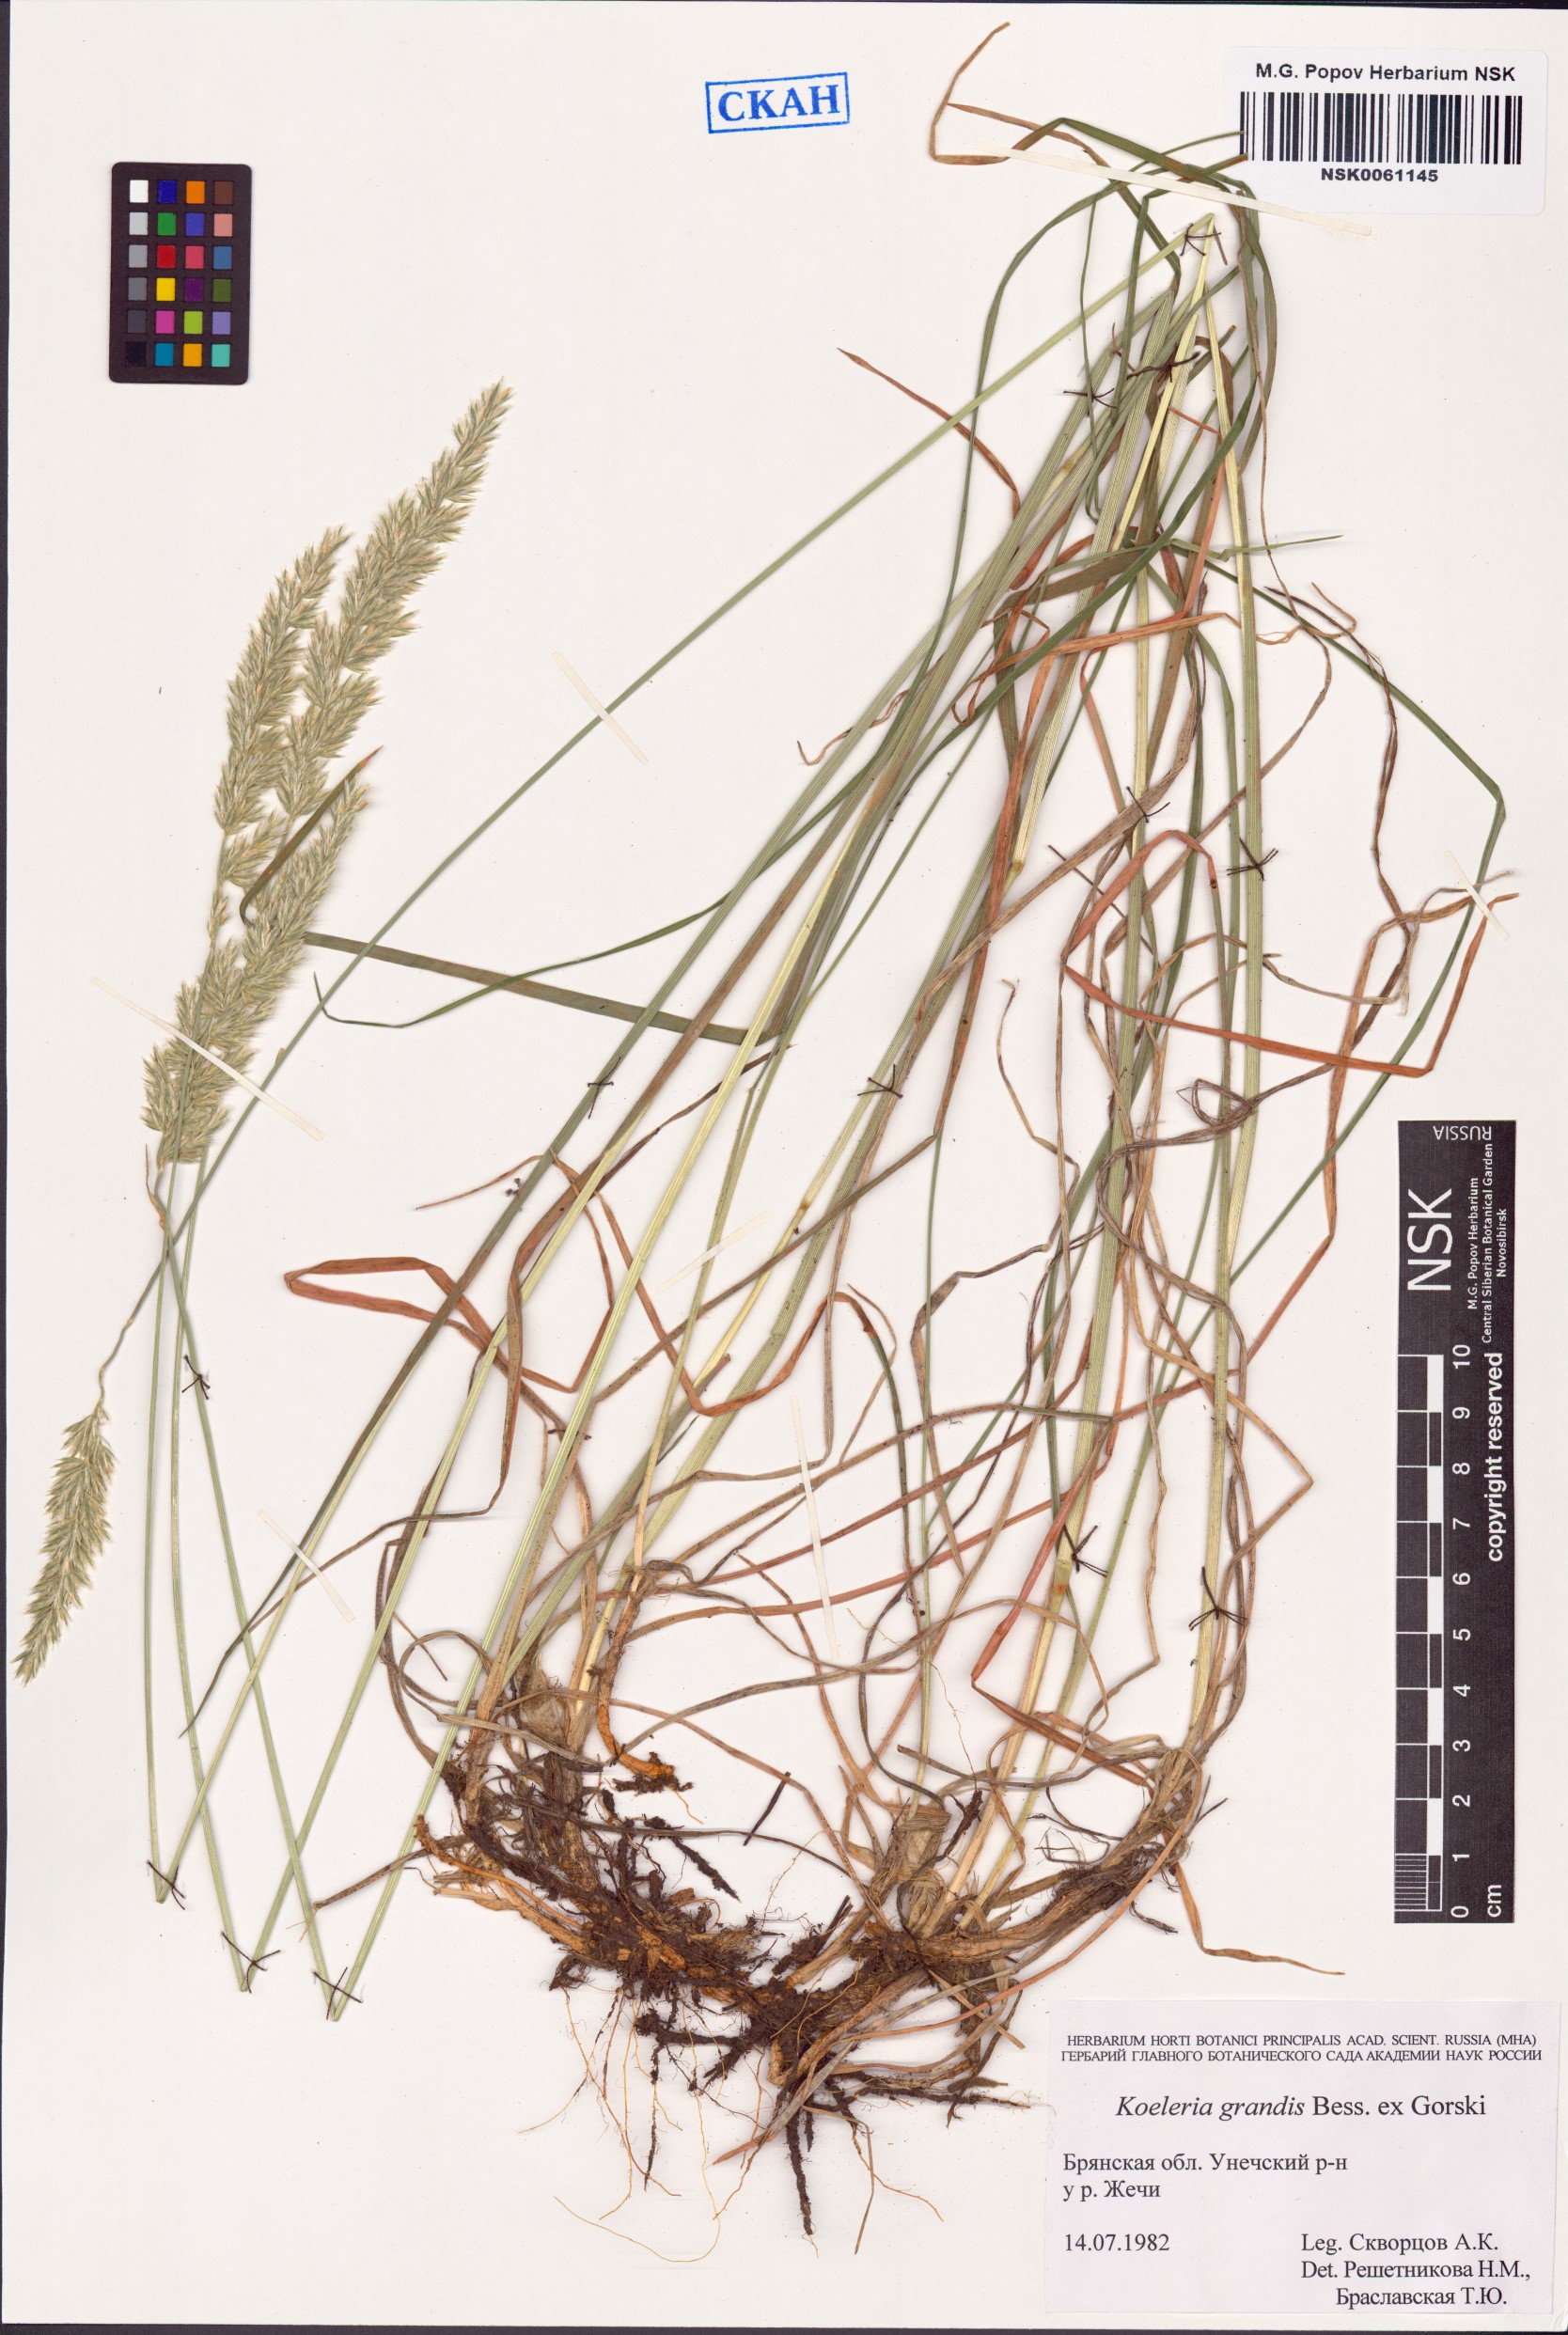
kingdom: Plantae
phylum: Tracheophyta
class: Liliopsida
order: Poales
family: Poaceae
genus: Koeleria
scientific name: Koeleria grandis
